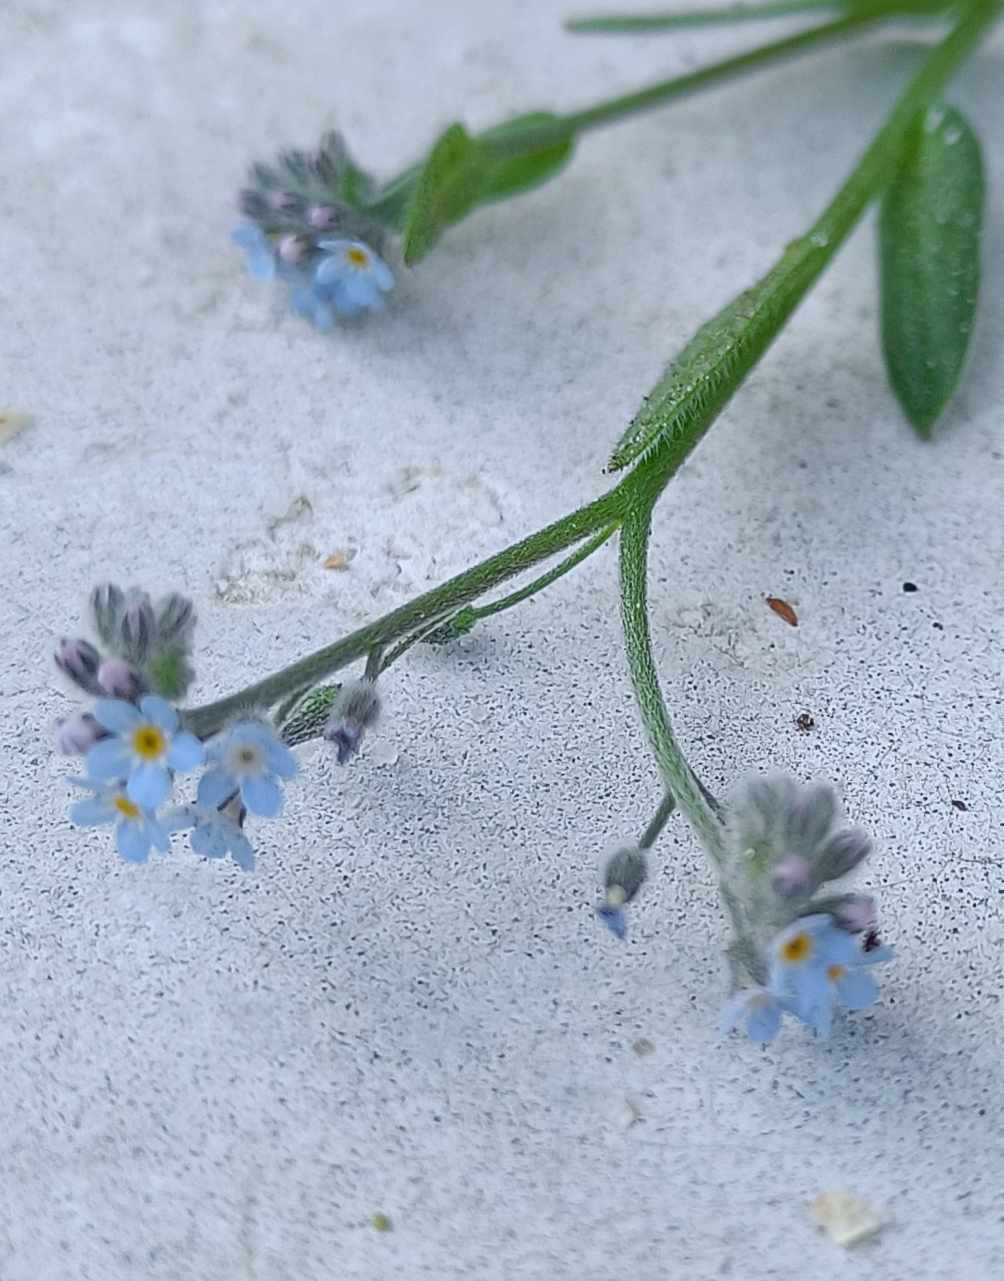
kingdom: Plantae
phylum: Tracheophyta
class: Magnoliopsida
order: Boraginales
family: Boraginaceae
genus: Myosotis
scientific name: Myosotis arvensis
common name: Mark-forglemmigej
